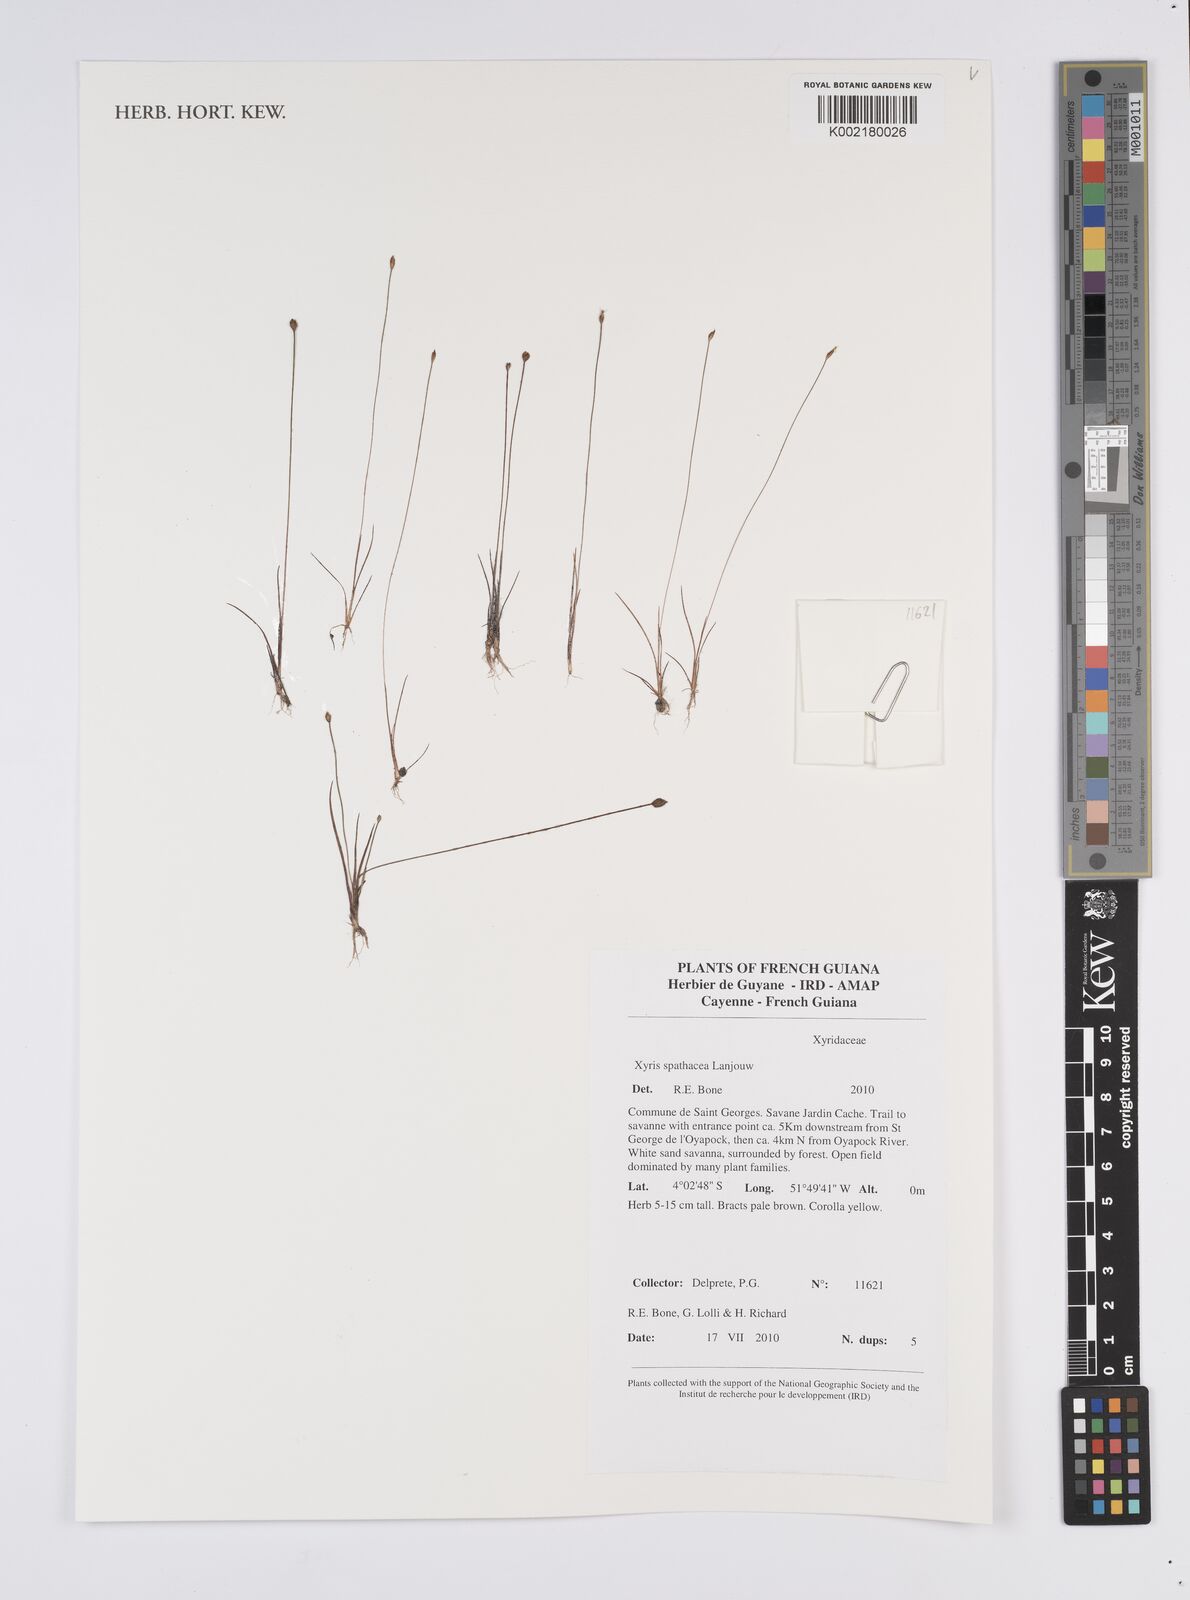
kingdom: Plantae
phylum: Tracheophyta
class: Liliopsida
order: Poales
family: Xyridaceae
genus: Xyris
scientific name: Xyris spathacea
